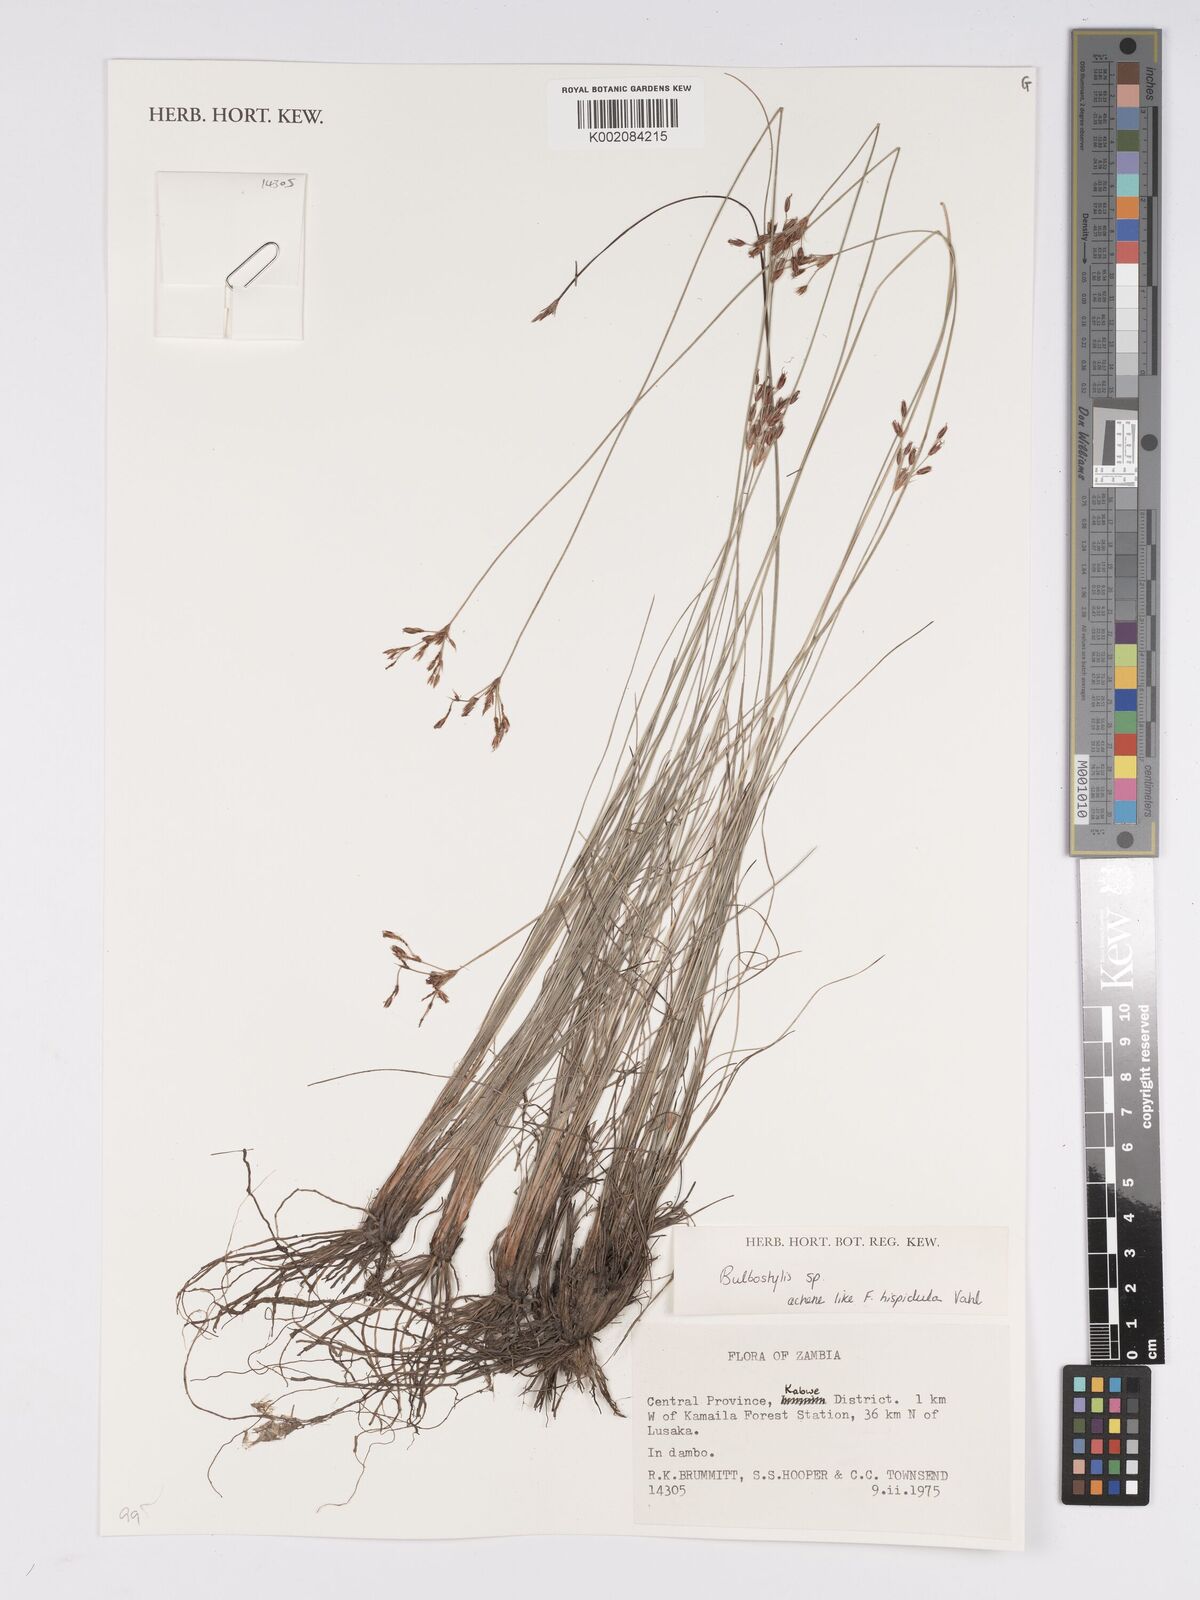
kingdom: Plantae
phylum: Tracheophyta
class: Liliopsida
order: Poales
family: Cyperaceae
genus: Bulbostylis
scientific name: Bulbostylis
